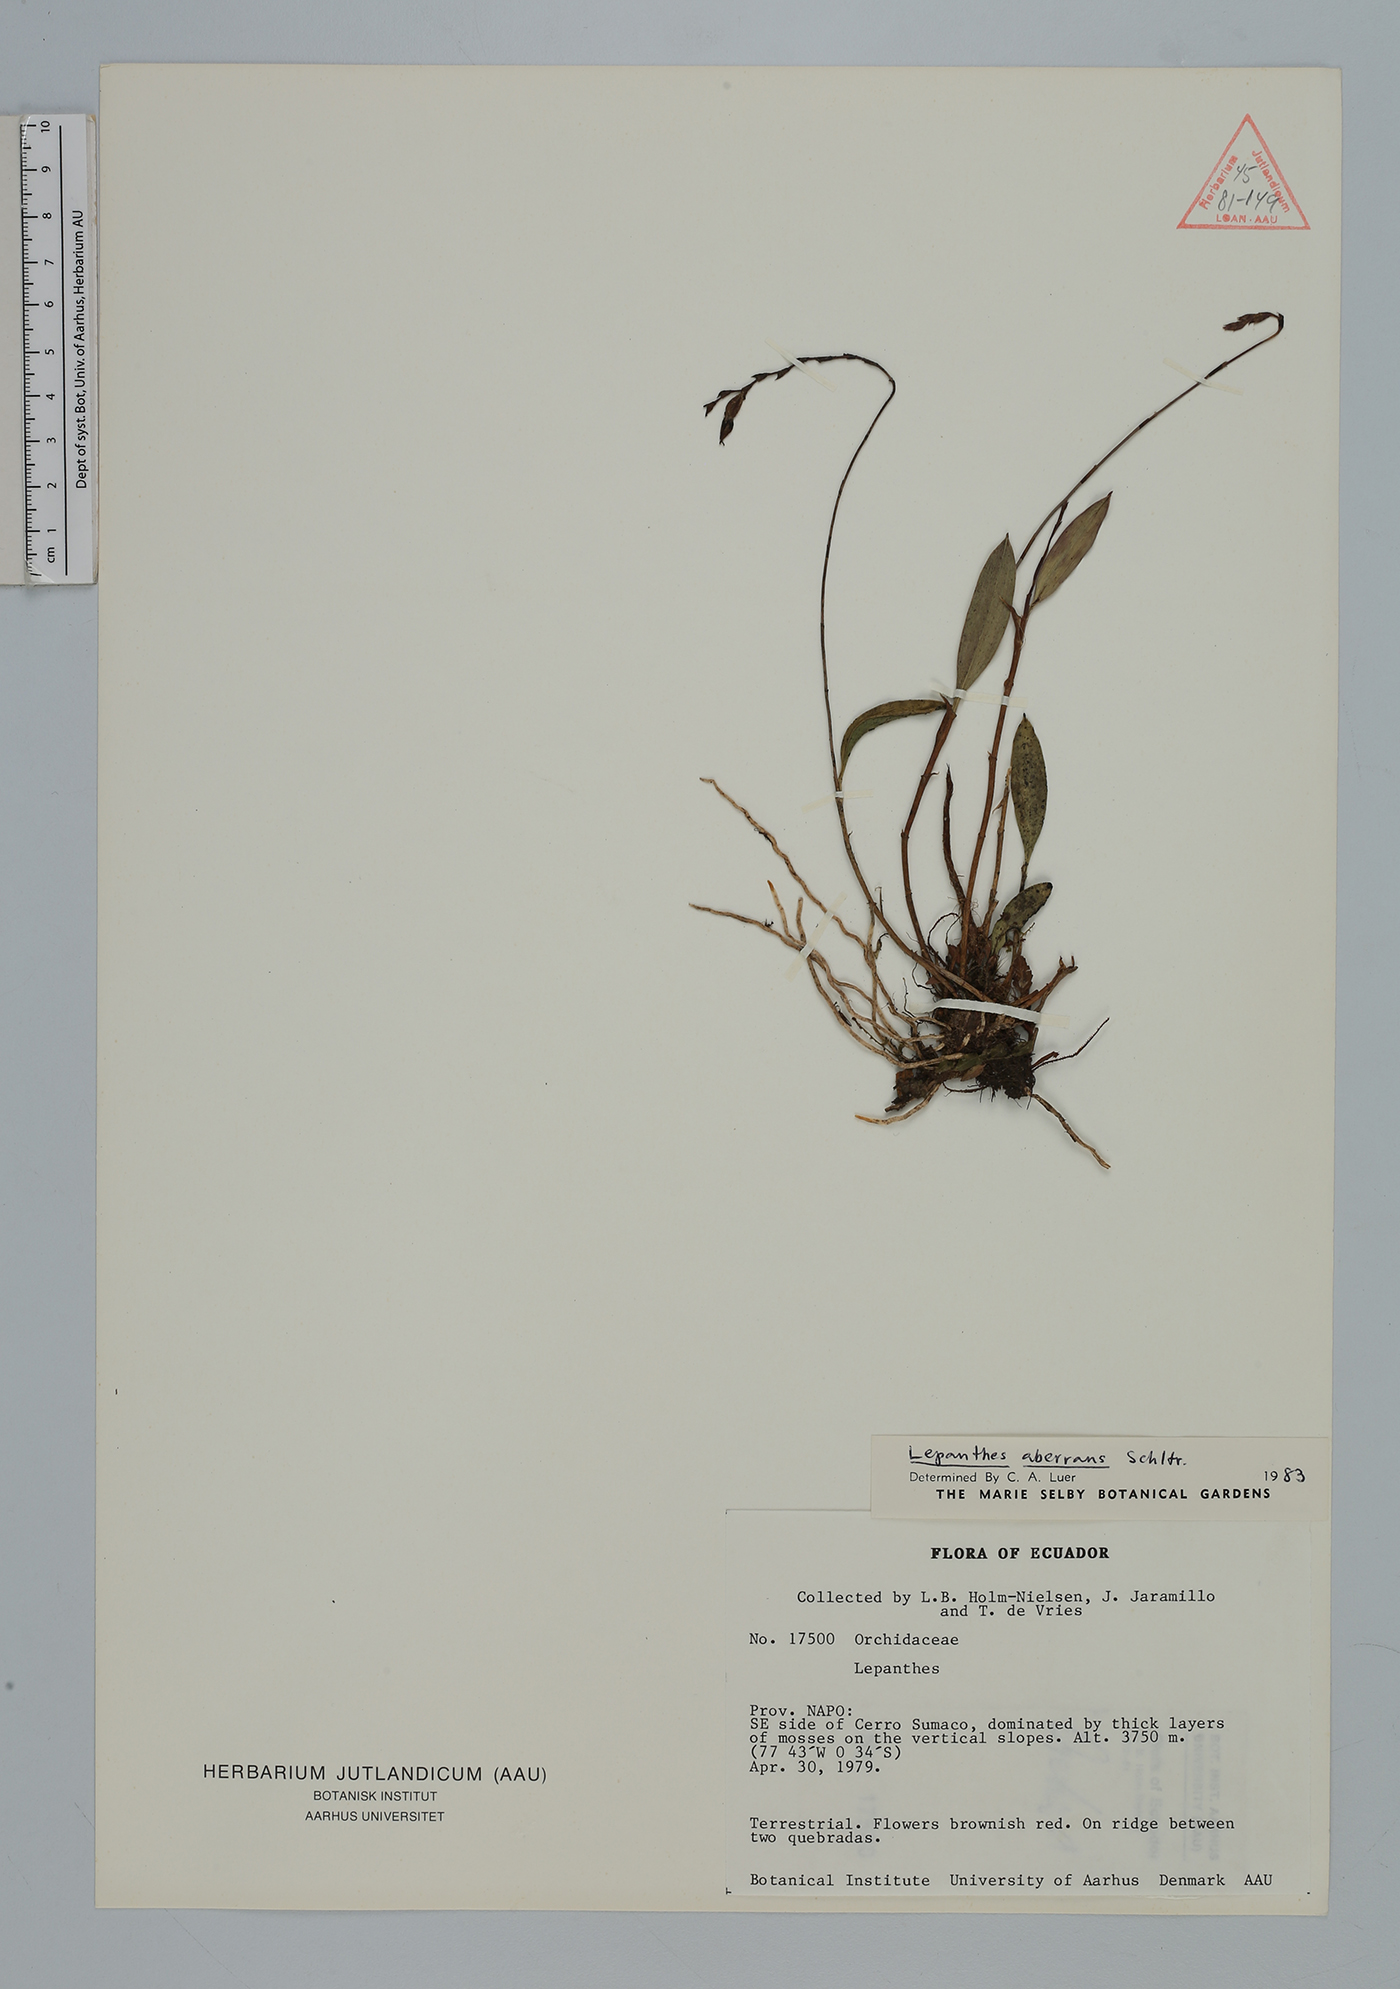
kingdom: Plantae
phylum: Tracheophyta
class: Liliopsida
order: Asparagales
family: Orchidaceae
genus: Draconanthes
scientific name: Draconanthes aberrans
